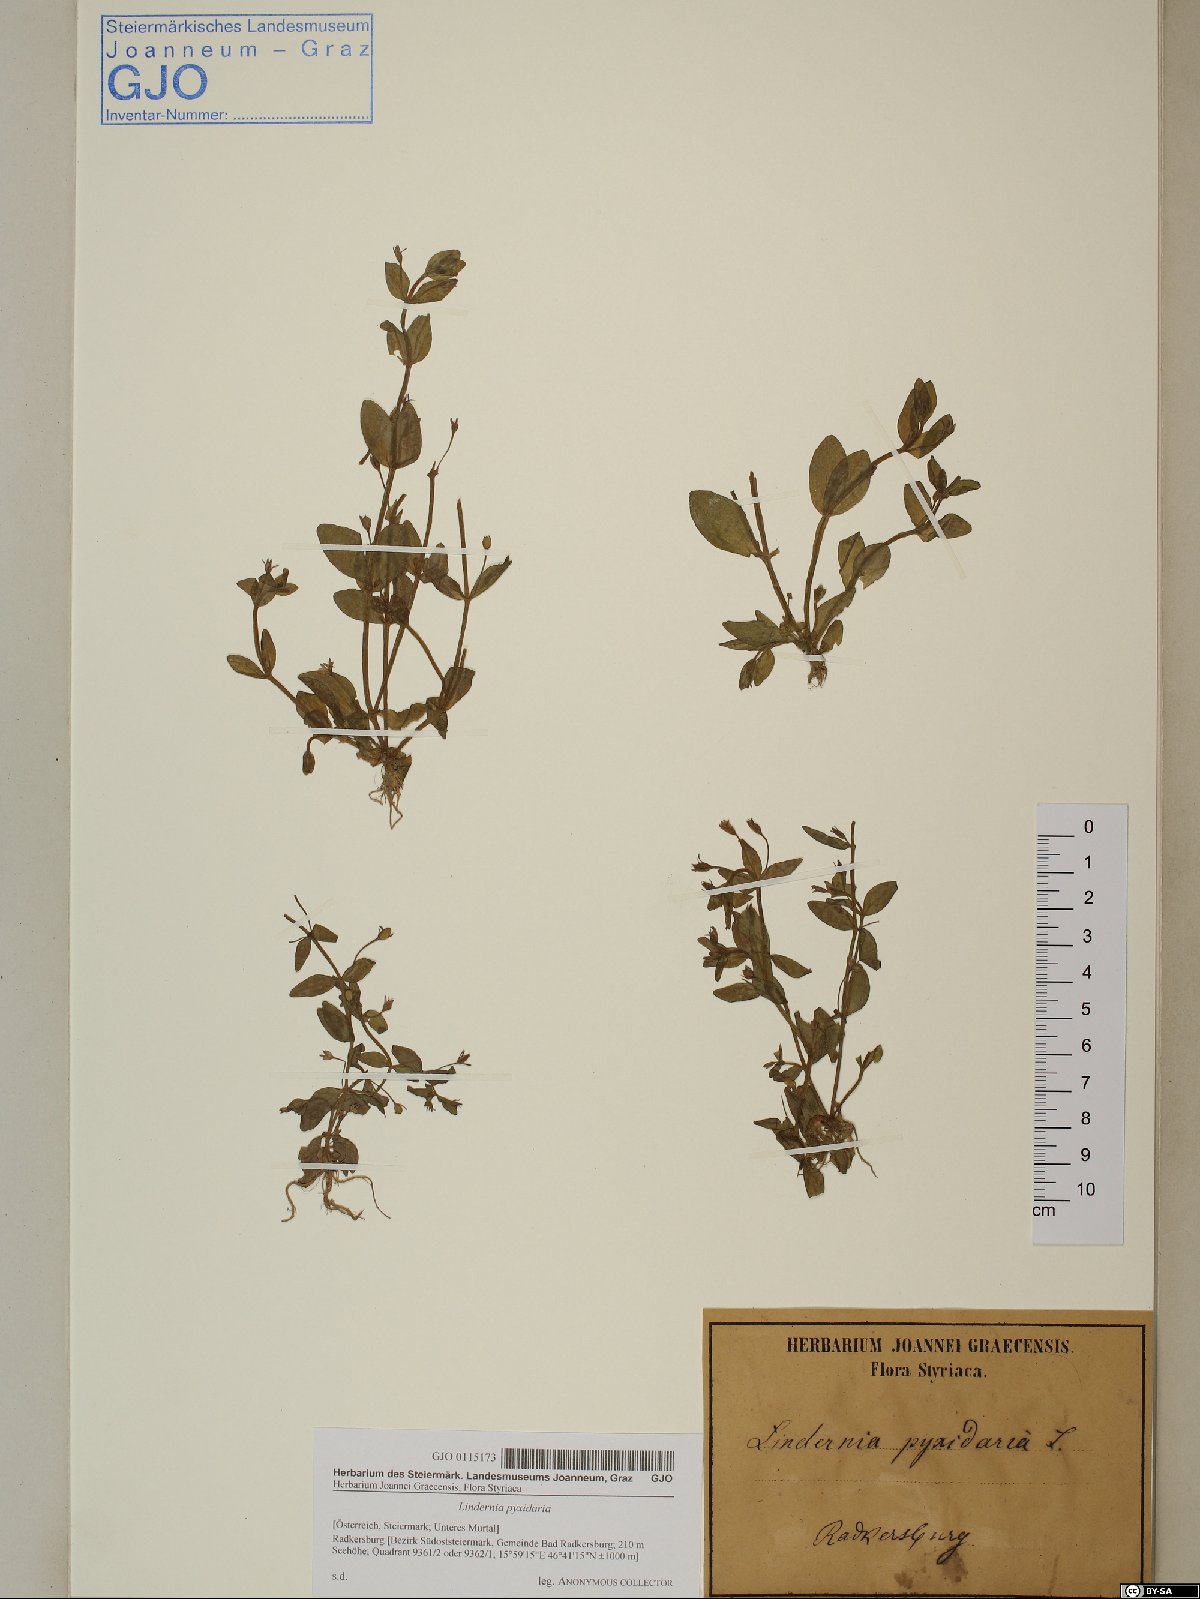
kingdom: Plantae
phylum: Tracheophyta
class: Magnoliopsida
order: Lamiales
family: Linderniaceae
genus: Lindernia
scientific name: Lindernia dubia
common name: Annual false pimpernel
